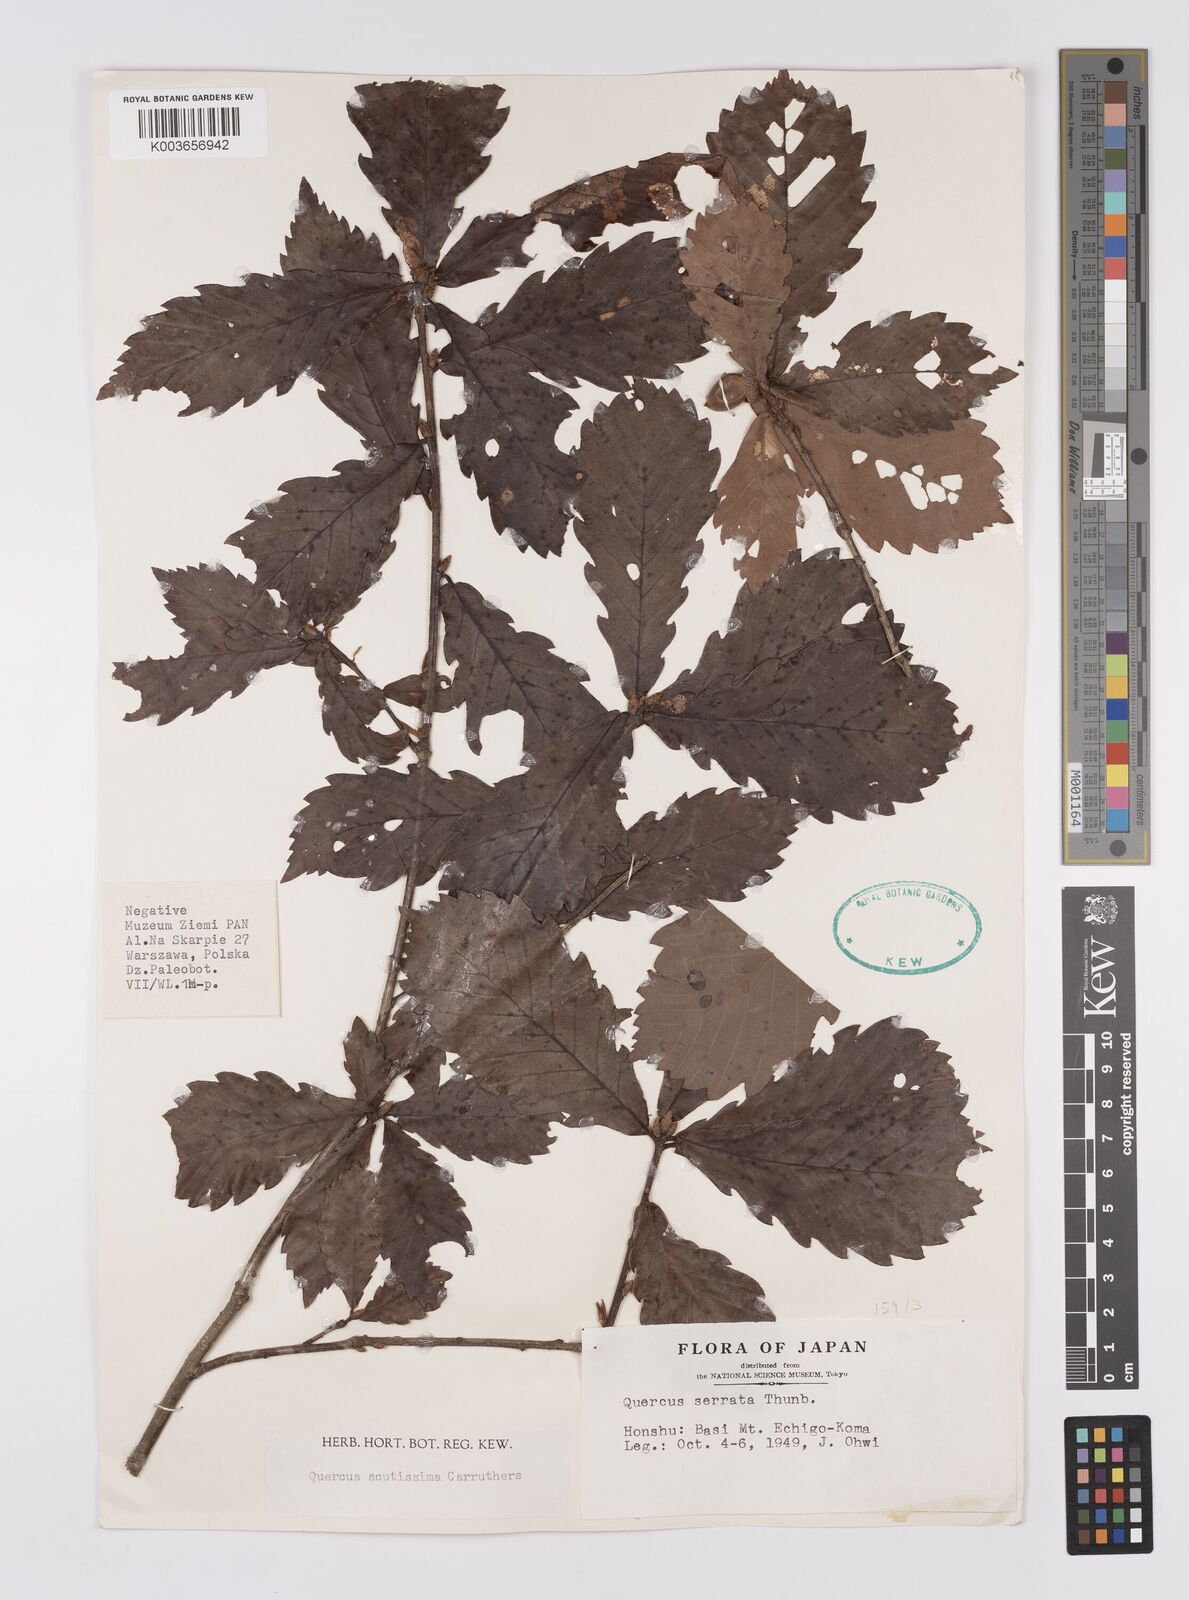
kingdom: Plantae
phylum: Tracheophyta
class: Magnoliopsida
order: Fagales
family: Fagaceae
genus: Quercus
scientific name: Quercus serrata
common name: Bao li
